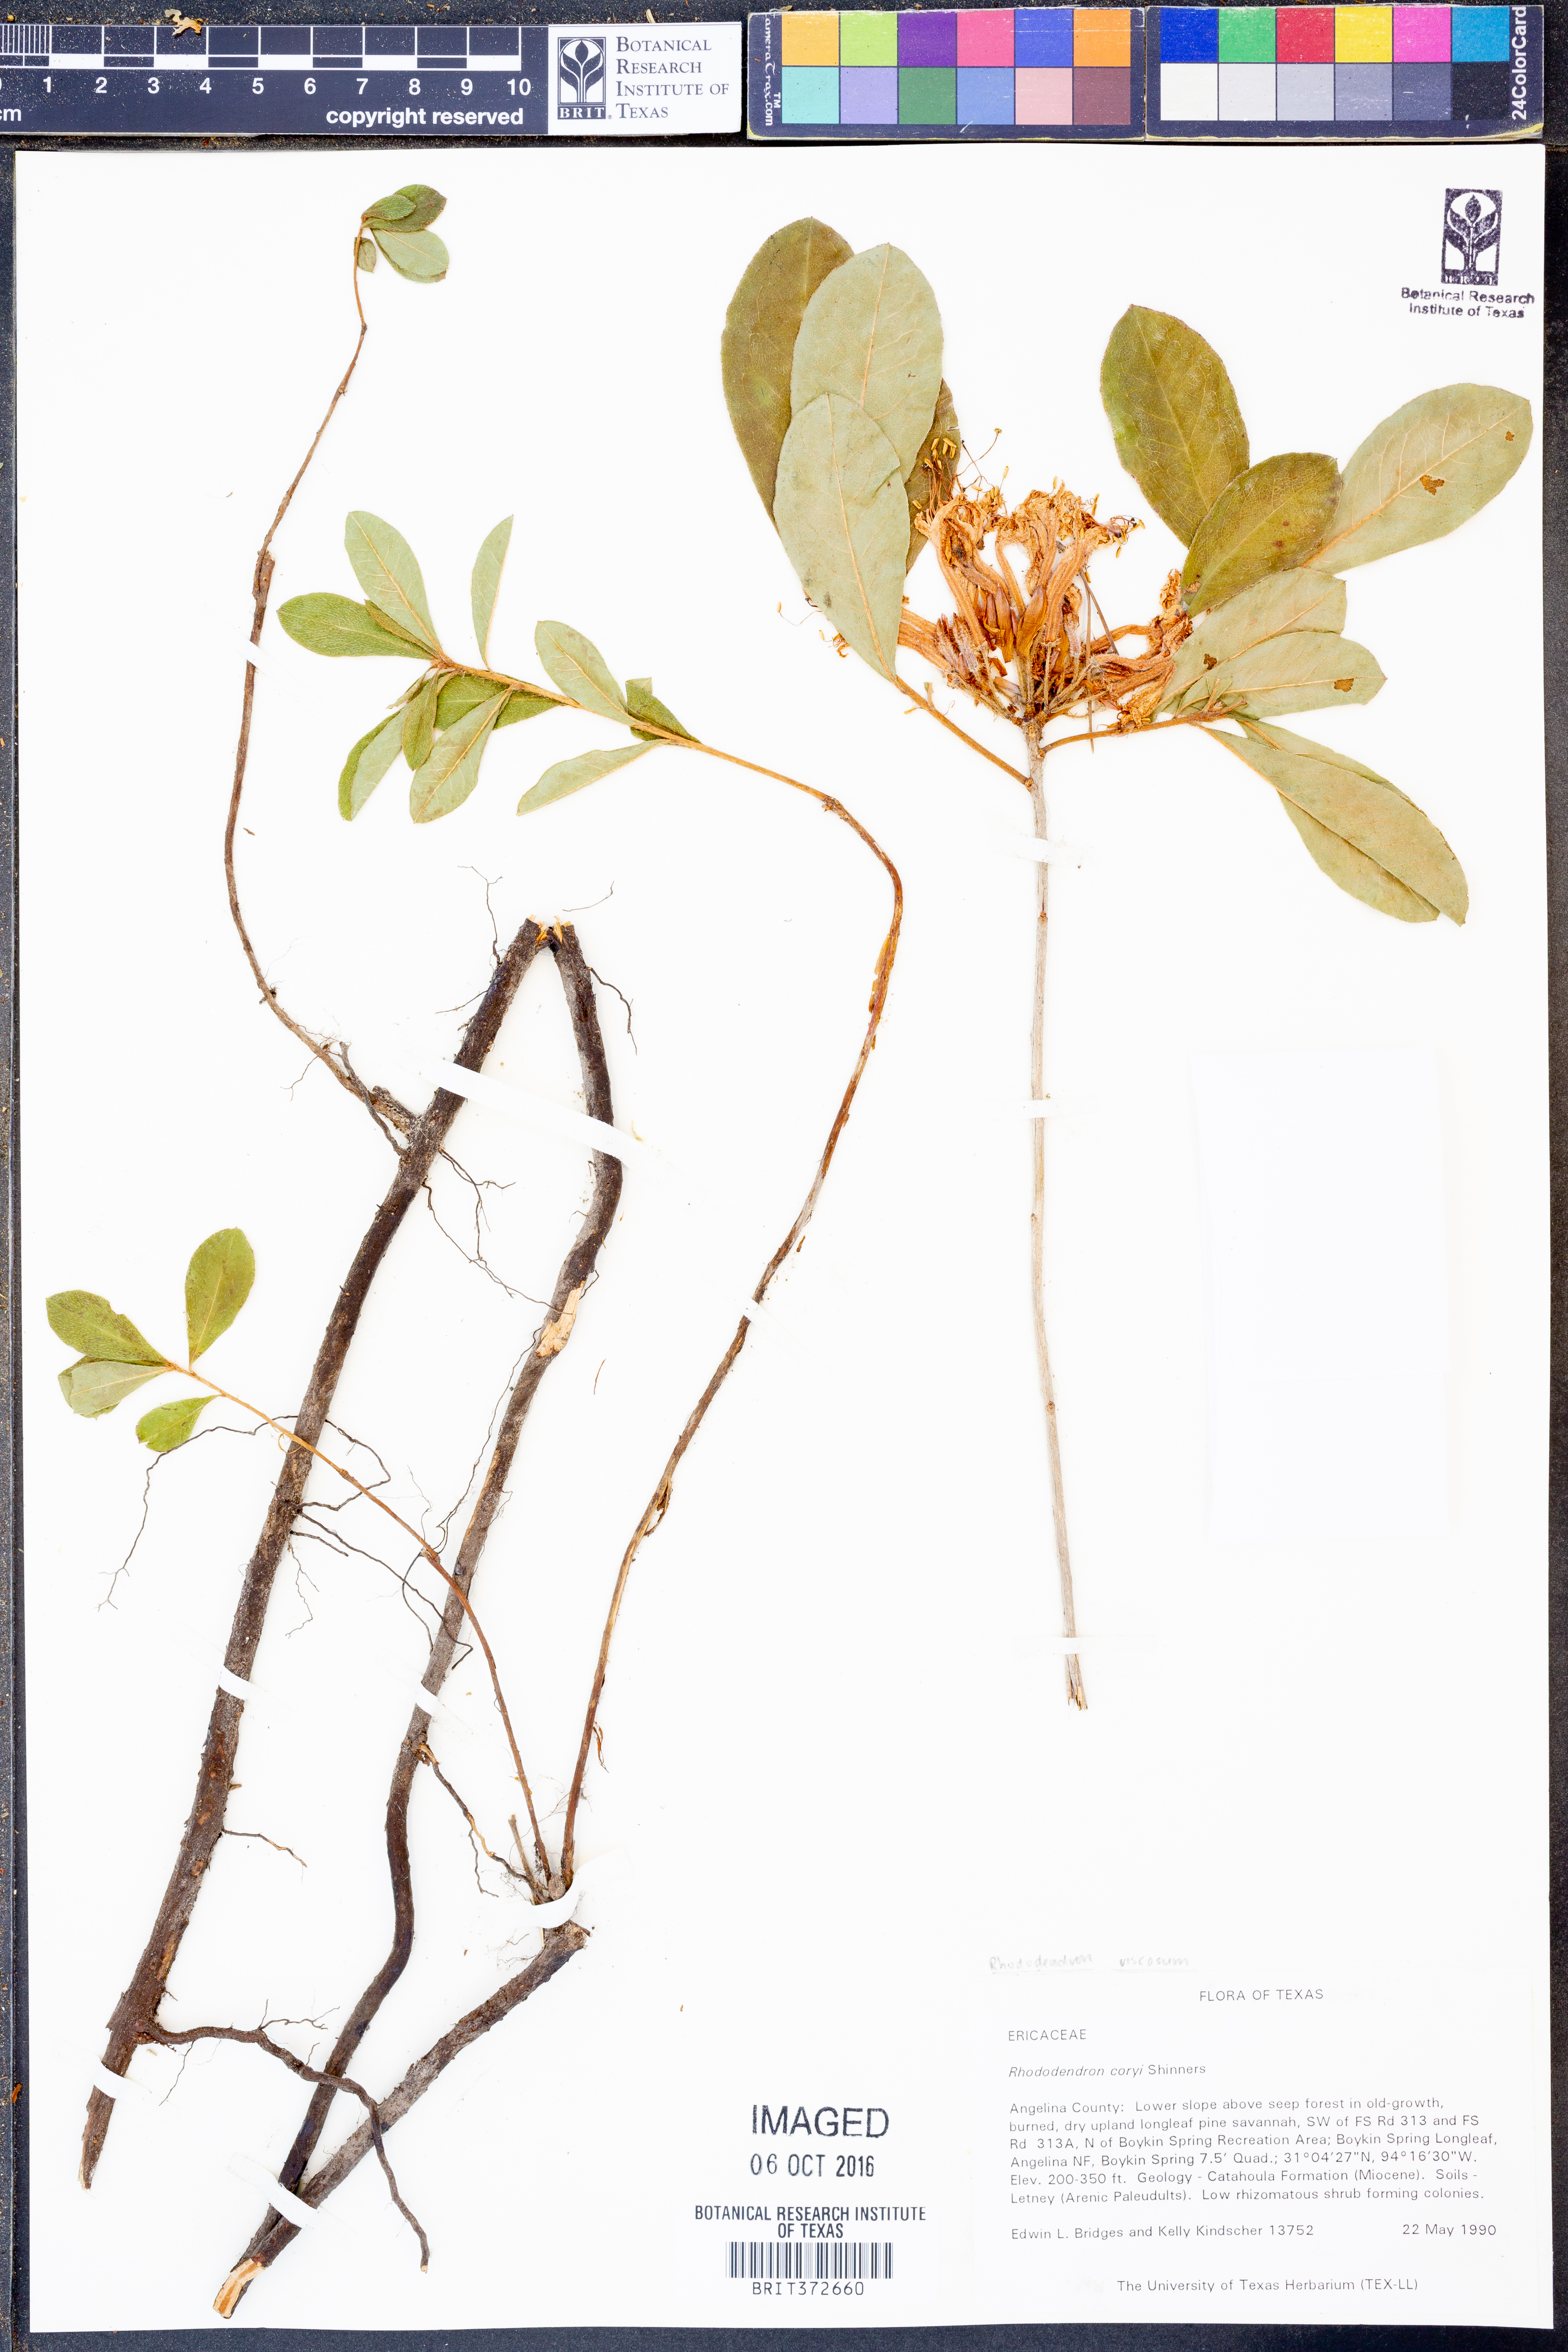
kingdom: Plantae
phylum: Tracheophyta
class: Magnoliopsida
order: Ericales
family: Ericaceae
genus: Rhododendron
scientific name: Rhododendron viscosum
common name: Clammy azalea
